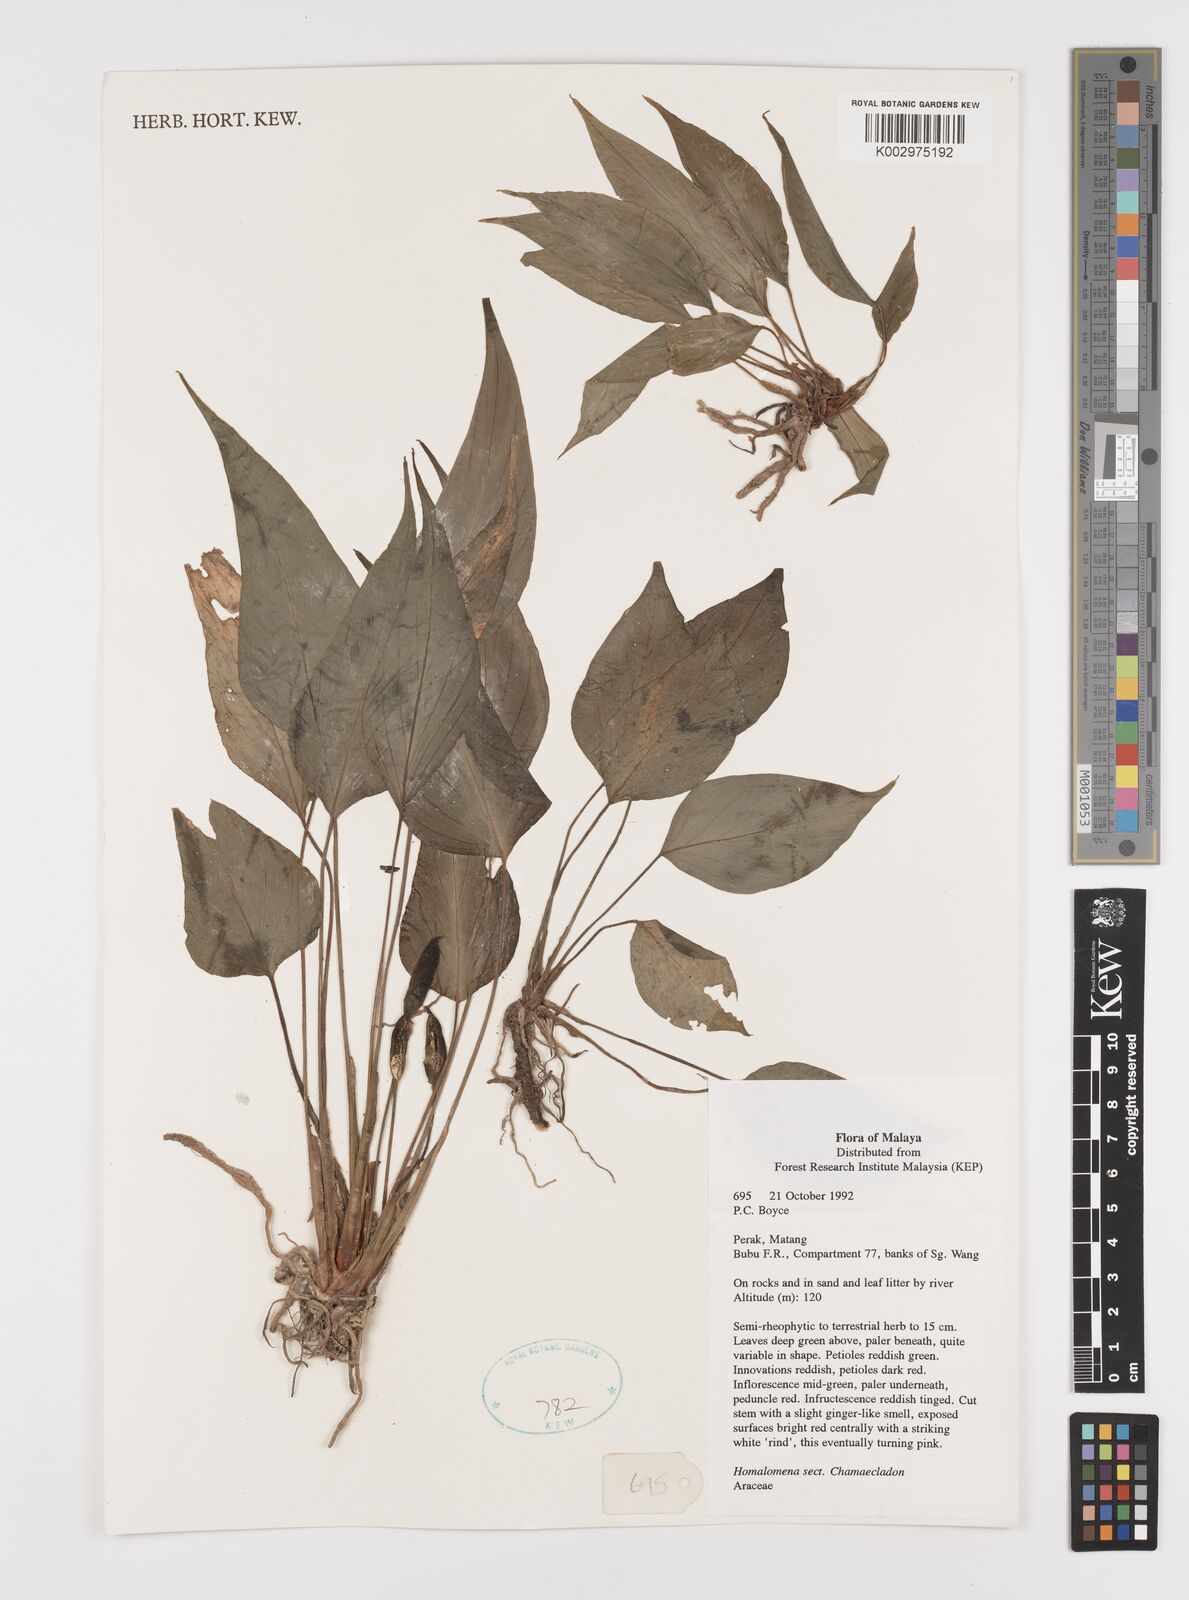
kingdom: Plantae
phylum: Tracheophyta
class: Liliopsida
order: Alismatales
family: Araceae
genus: Homalomena
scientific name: Homalomena
